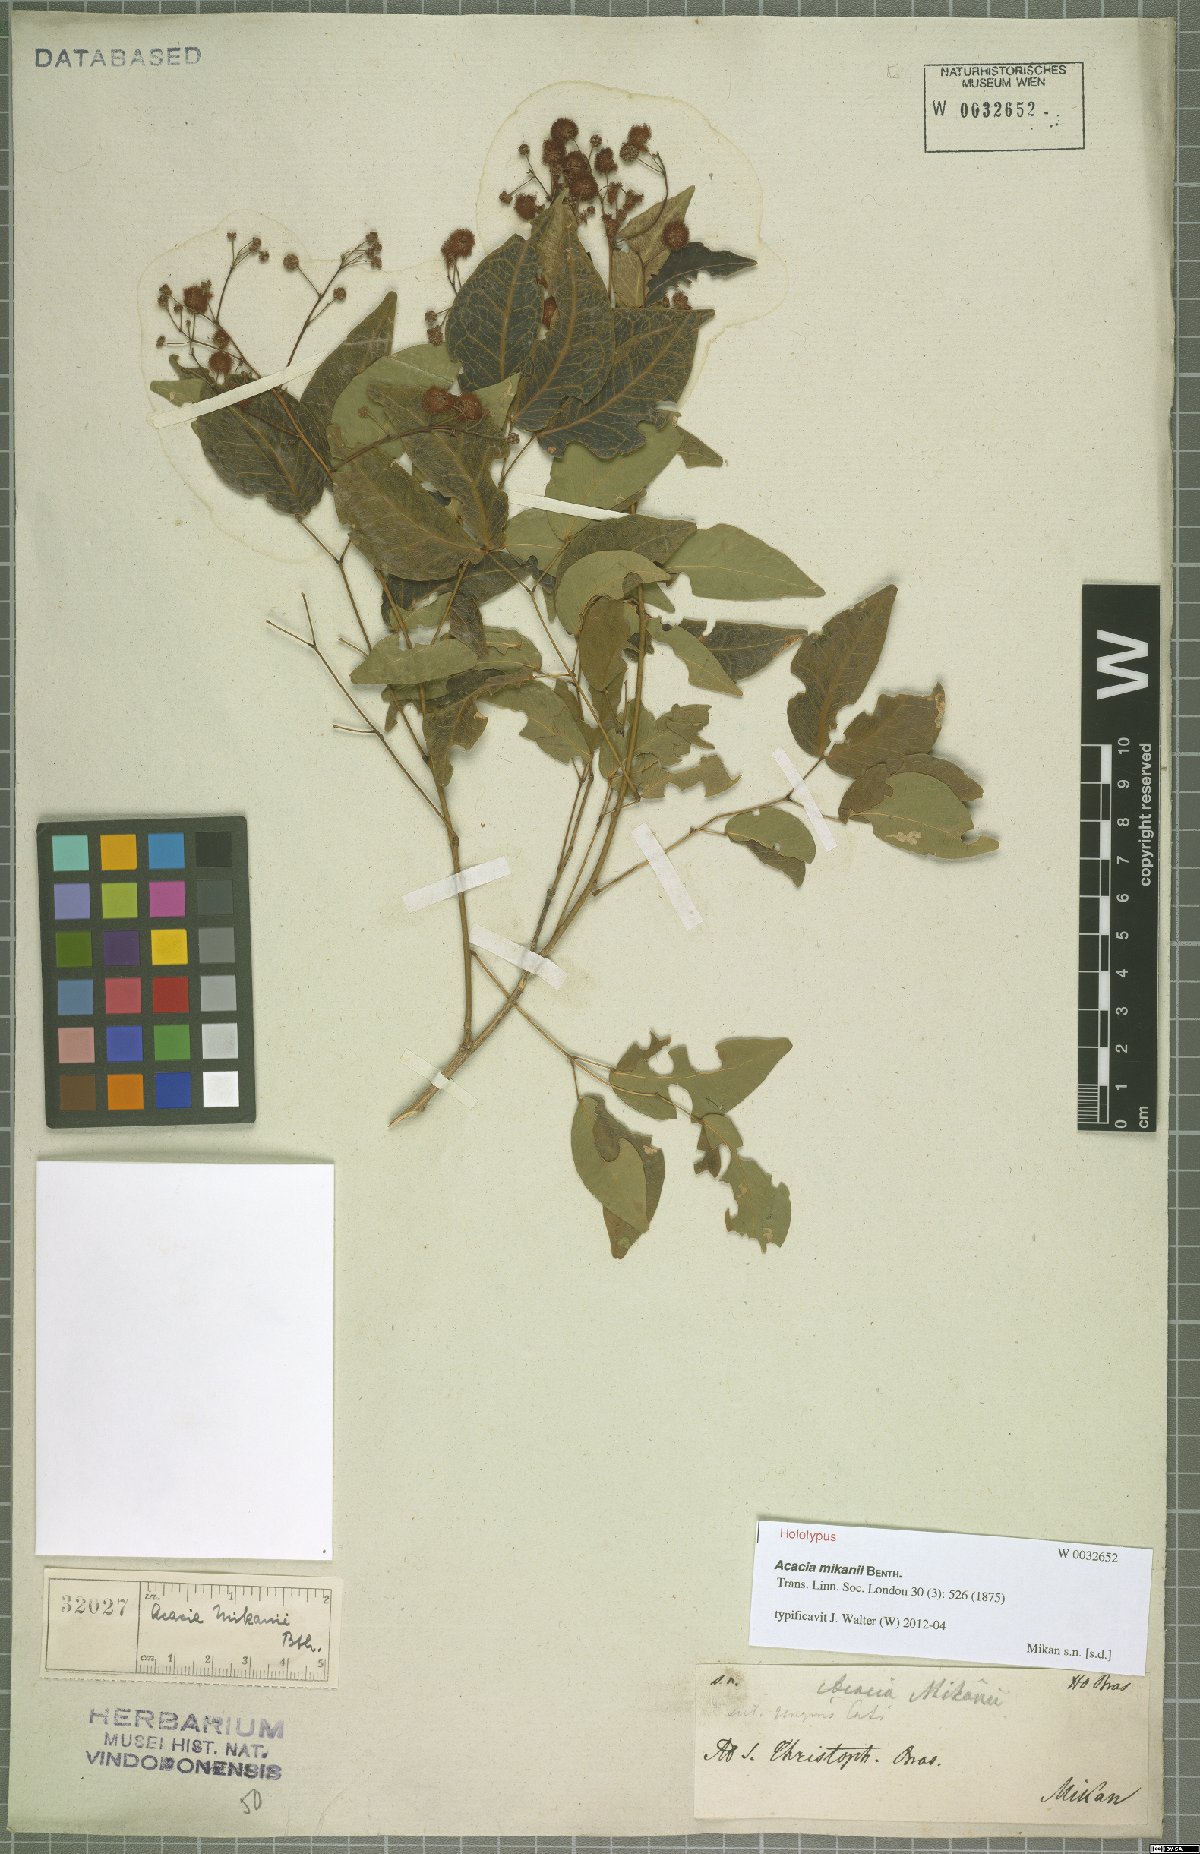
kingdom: Plantae
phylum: Tracheophyta
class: Magnoliopsida
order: Fabales
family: Fabaceae
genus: Senegalia
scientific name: Senegalia mikanii
